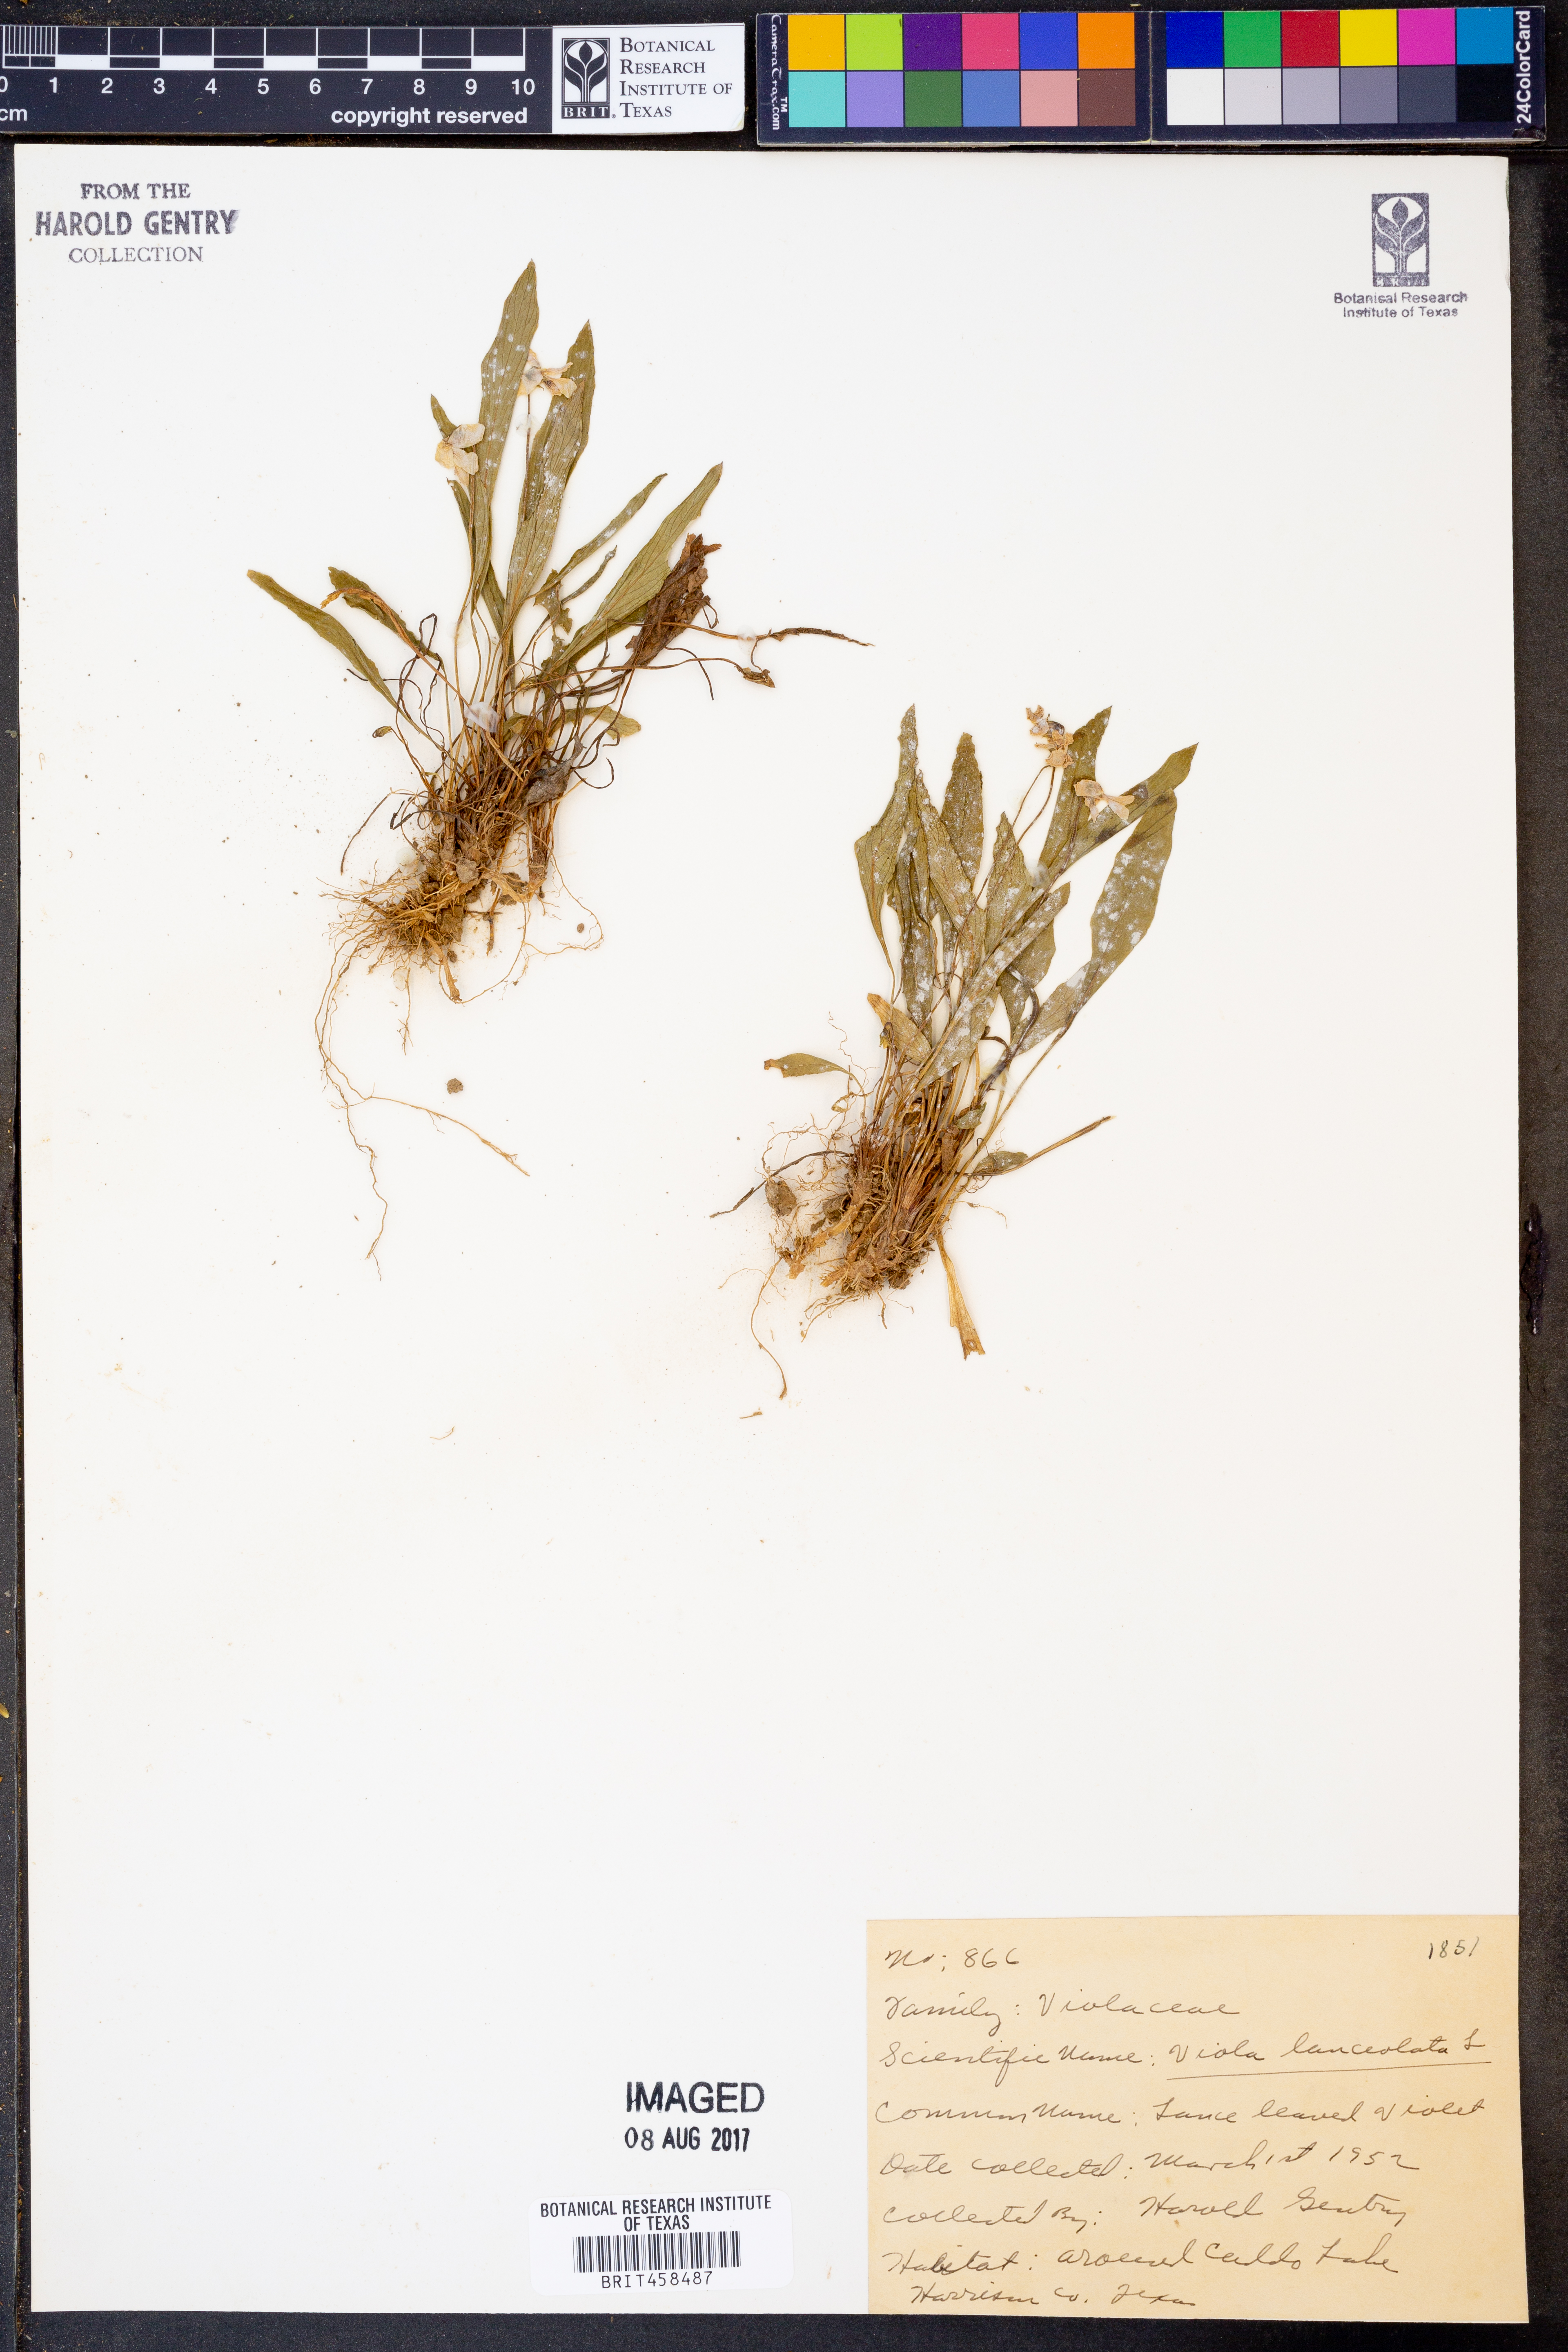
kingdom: Plantae
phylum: Tracheophyta
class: Magnoliopsida
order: Malpighiales
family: Violaceae
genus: Viola
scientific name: Viola lanceolata
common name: Bog white violet
